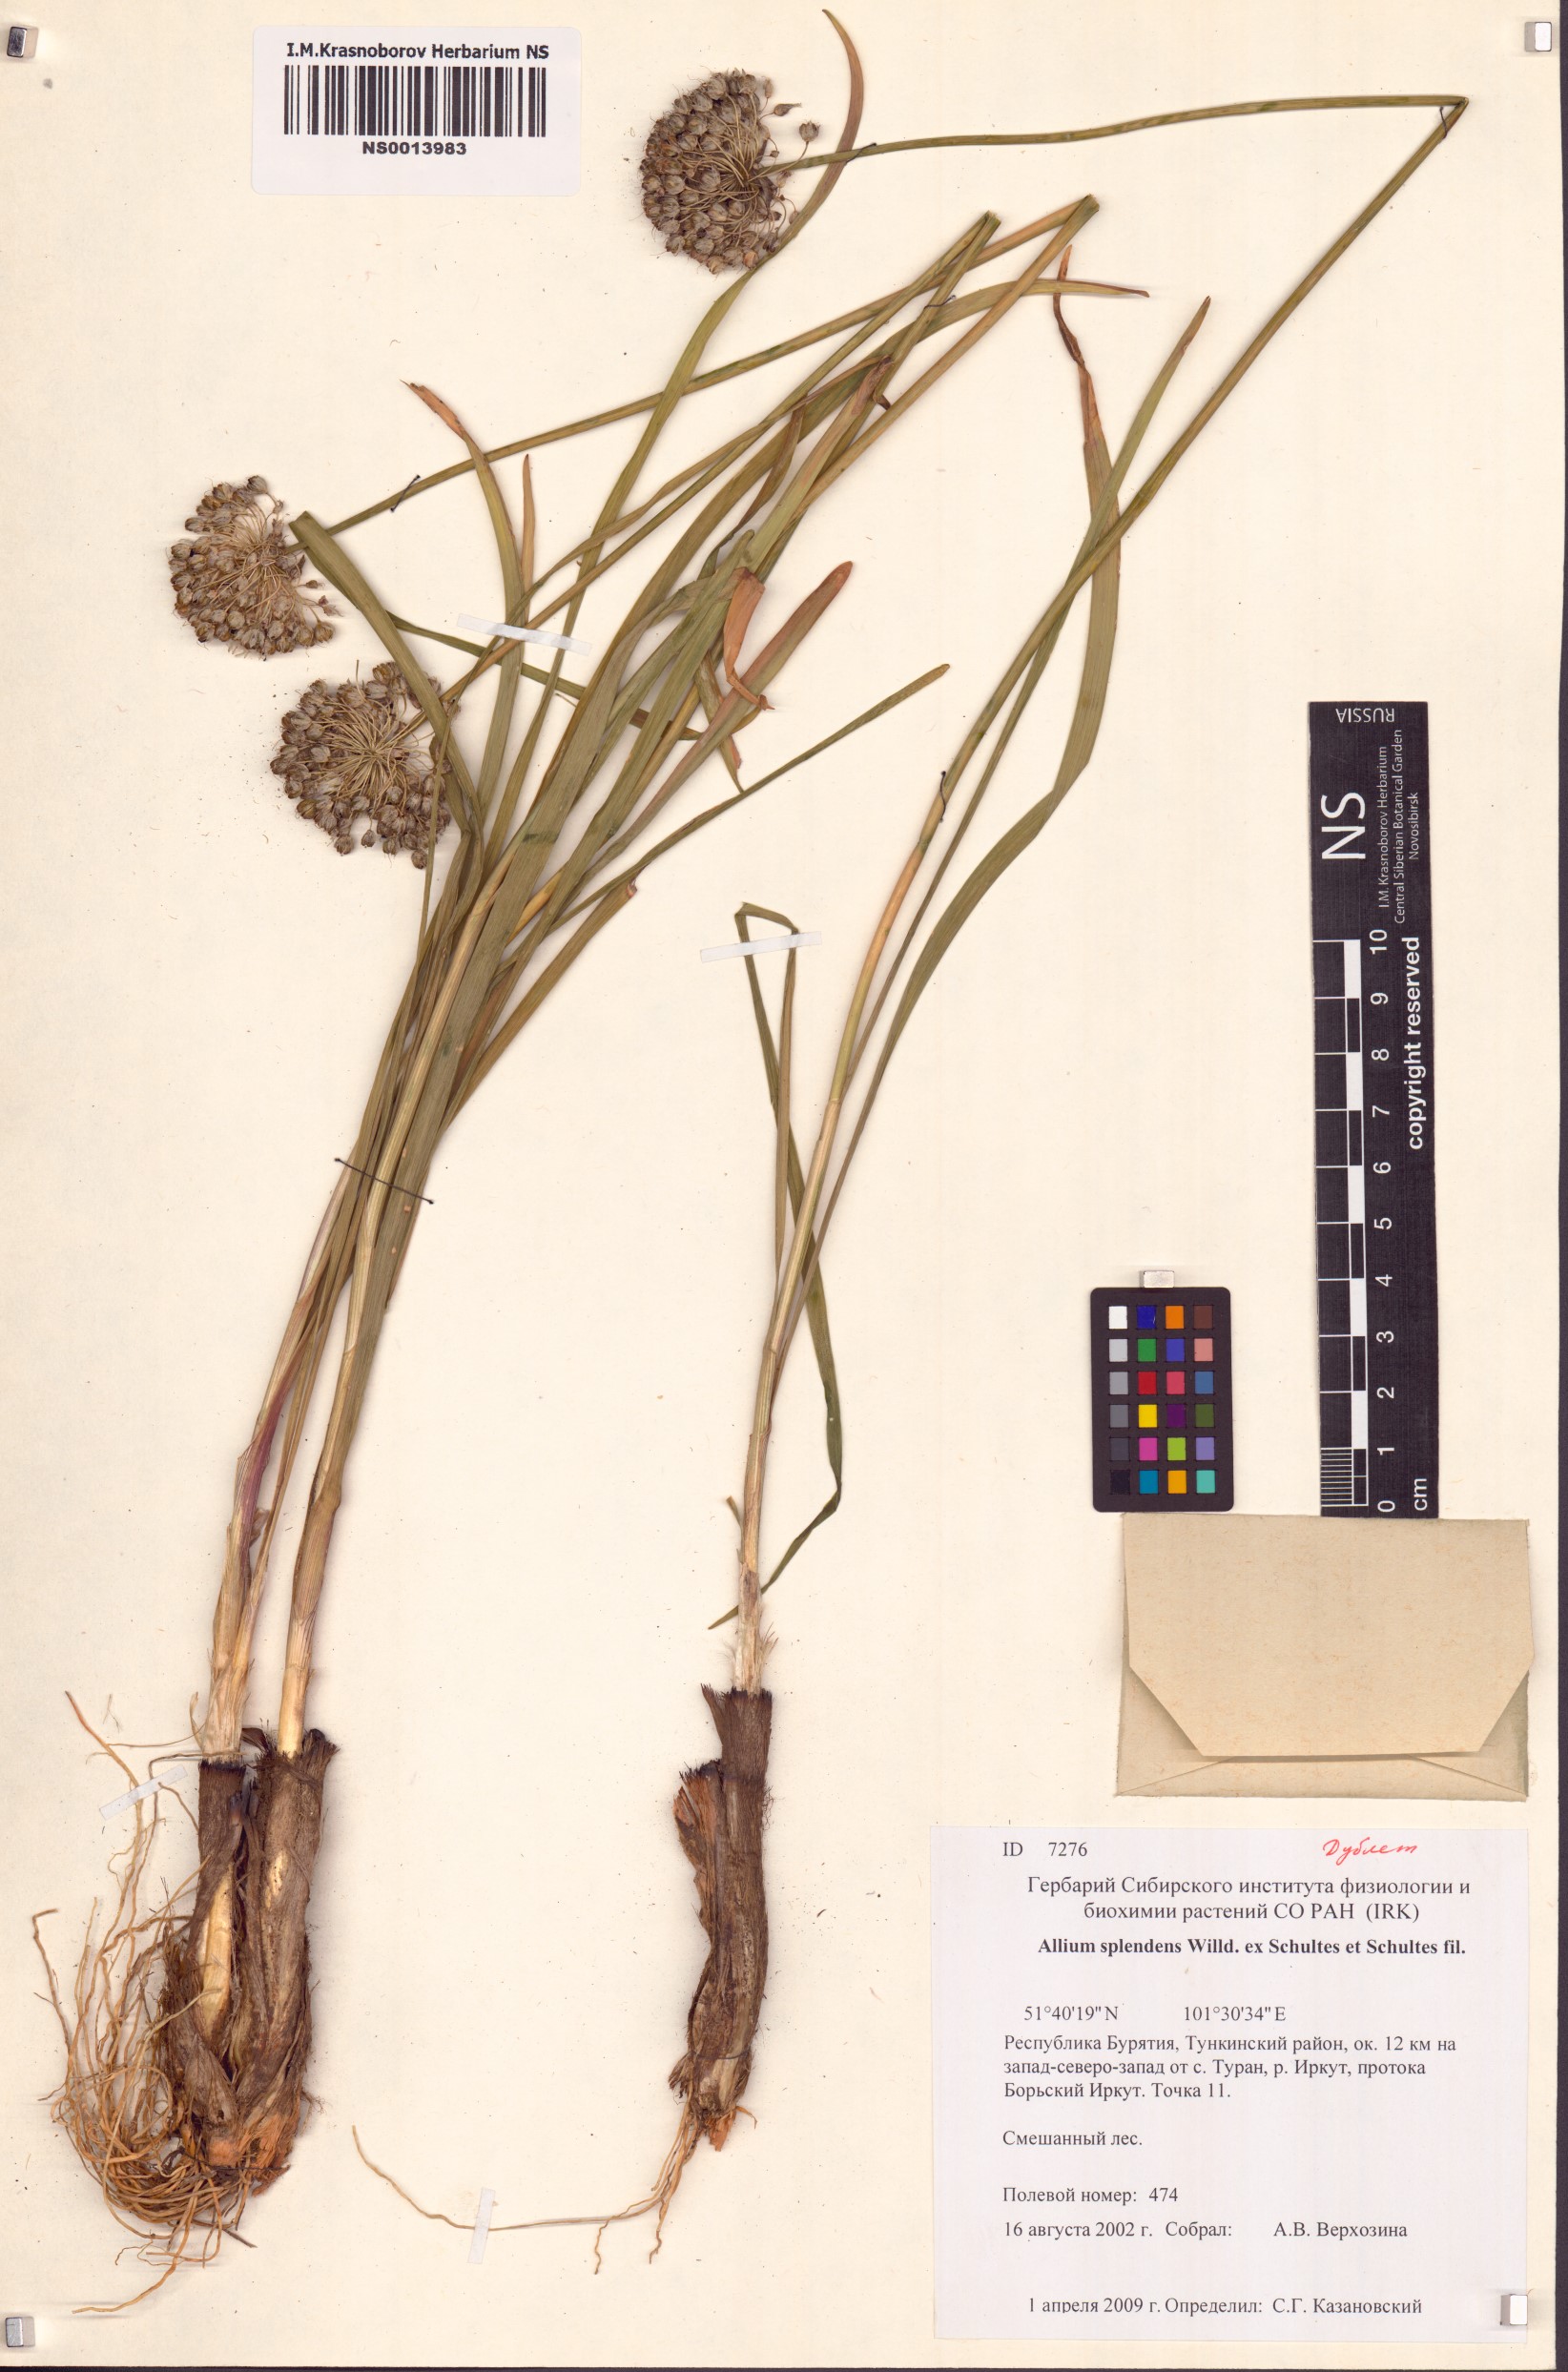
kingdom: Plantae
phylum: Tracheophyta
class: Liliopsida
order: Asparagales
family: Amaryllidaceae
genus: Allium
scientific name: Allium splendens
